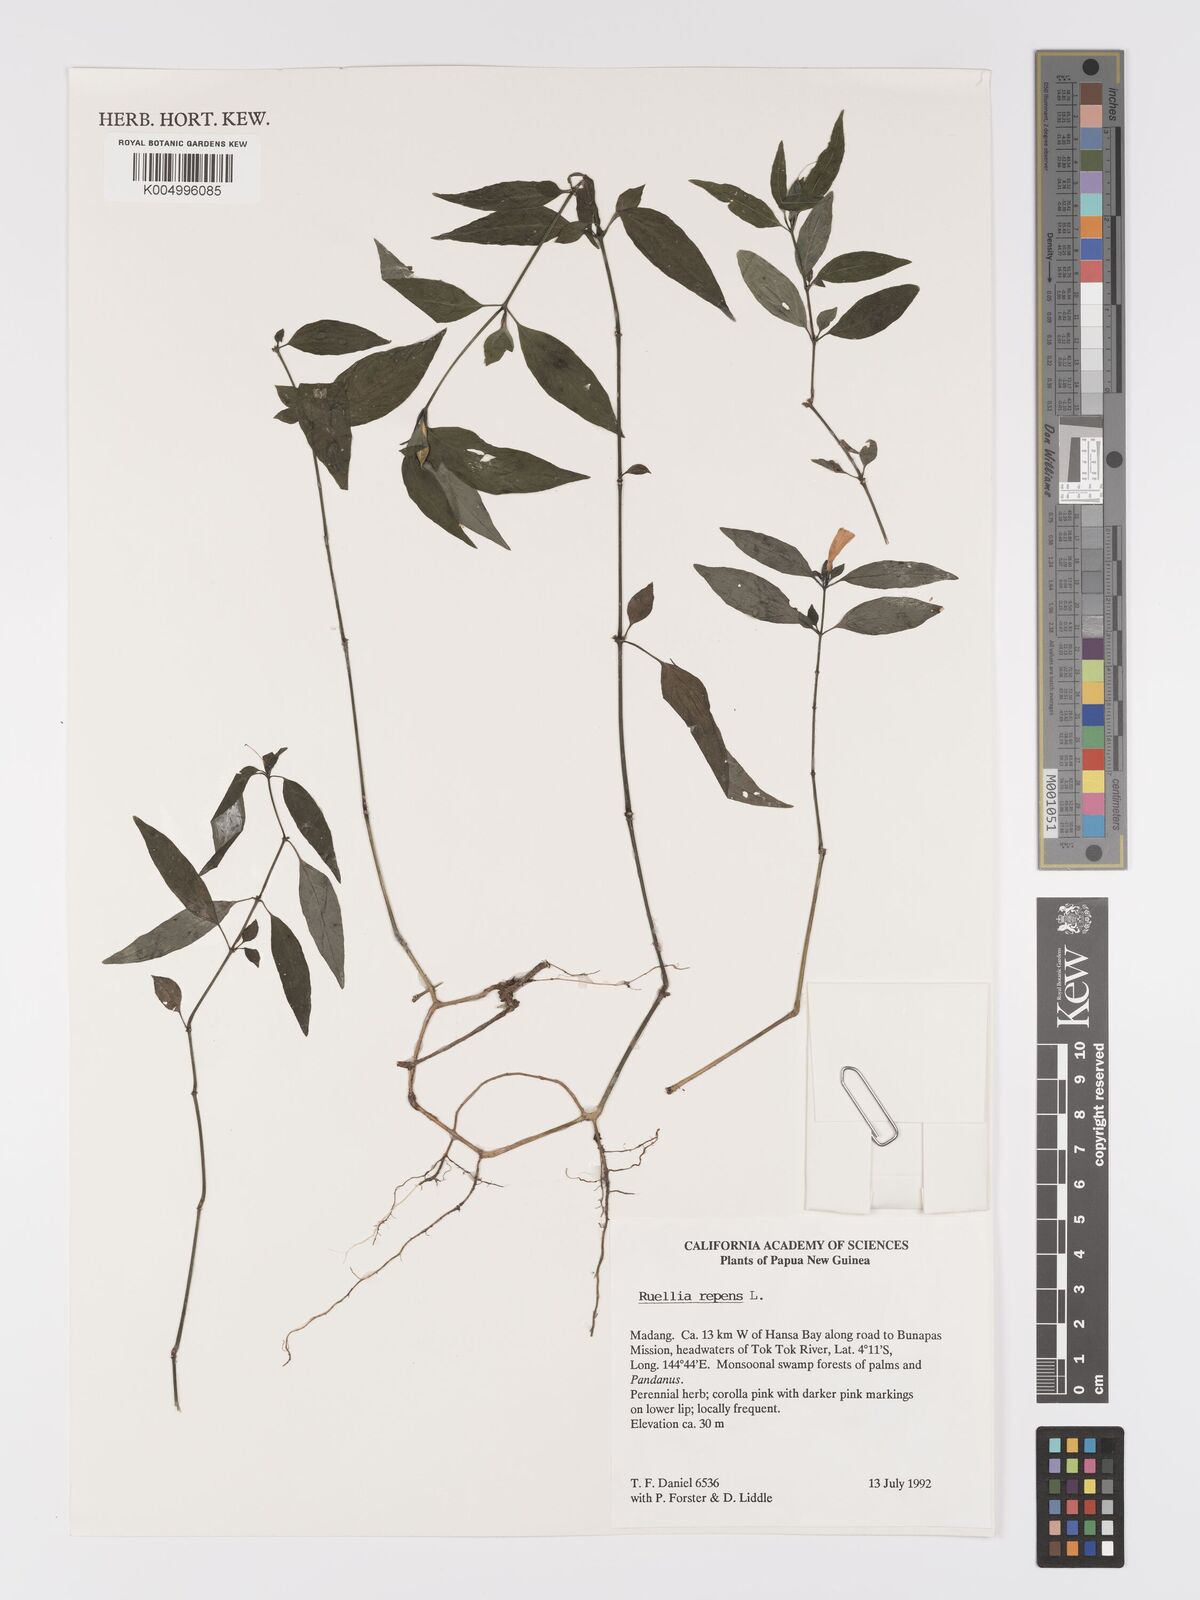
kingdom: Plantae
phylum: Tracheophyta
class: Magnoliopsida
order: Lamiales
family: Acanthaceae
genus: Ruellia
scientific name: Ruellia
